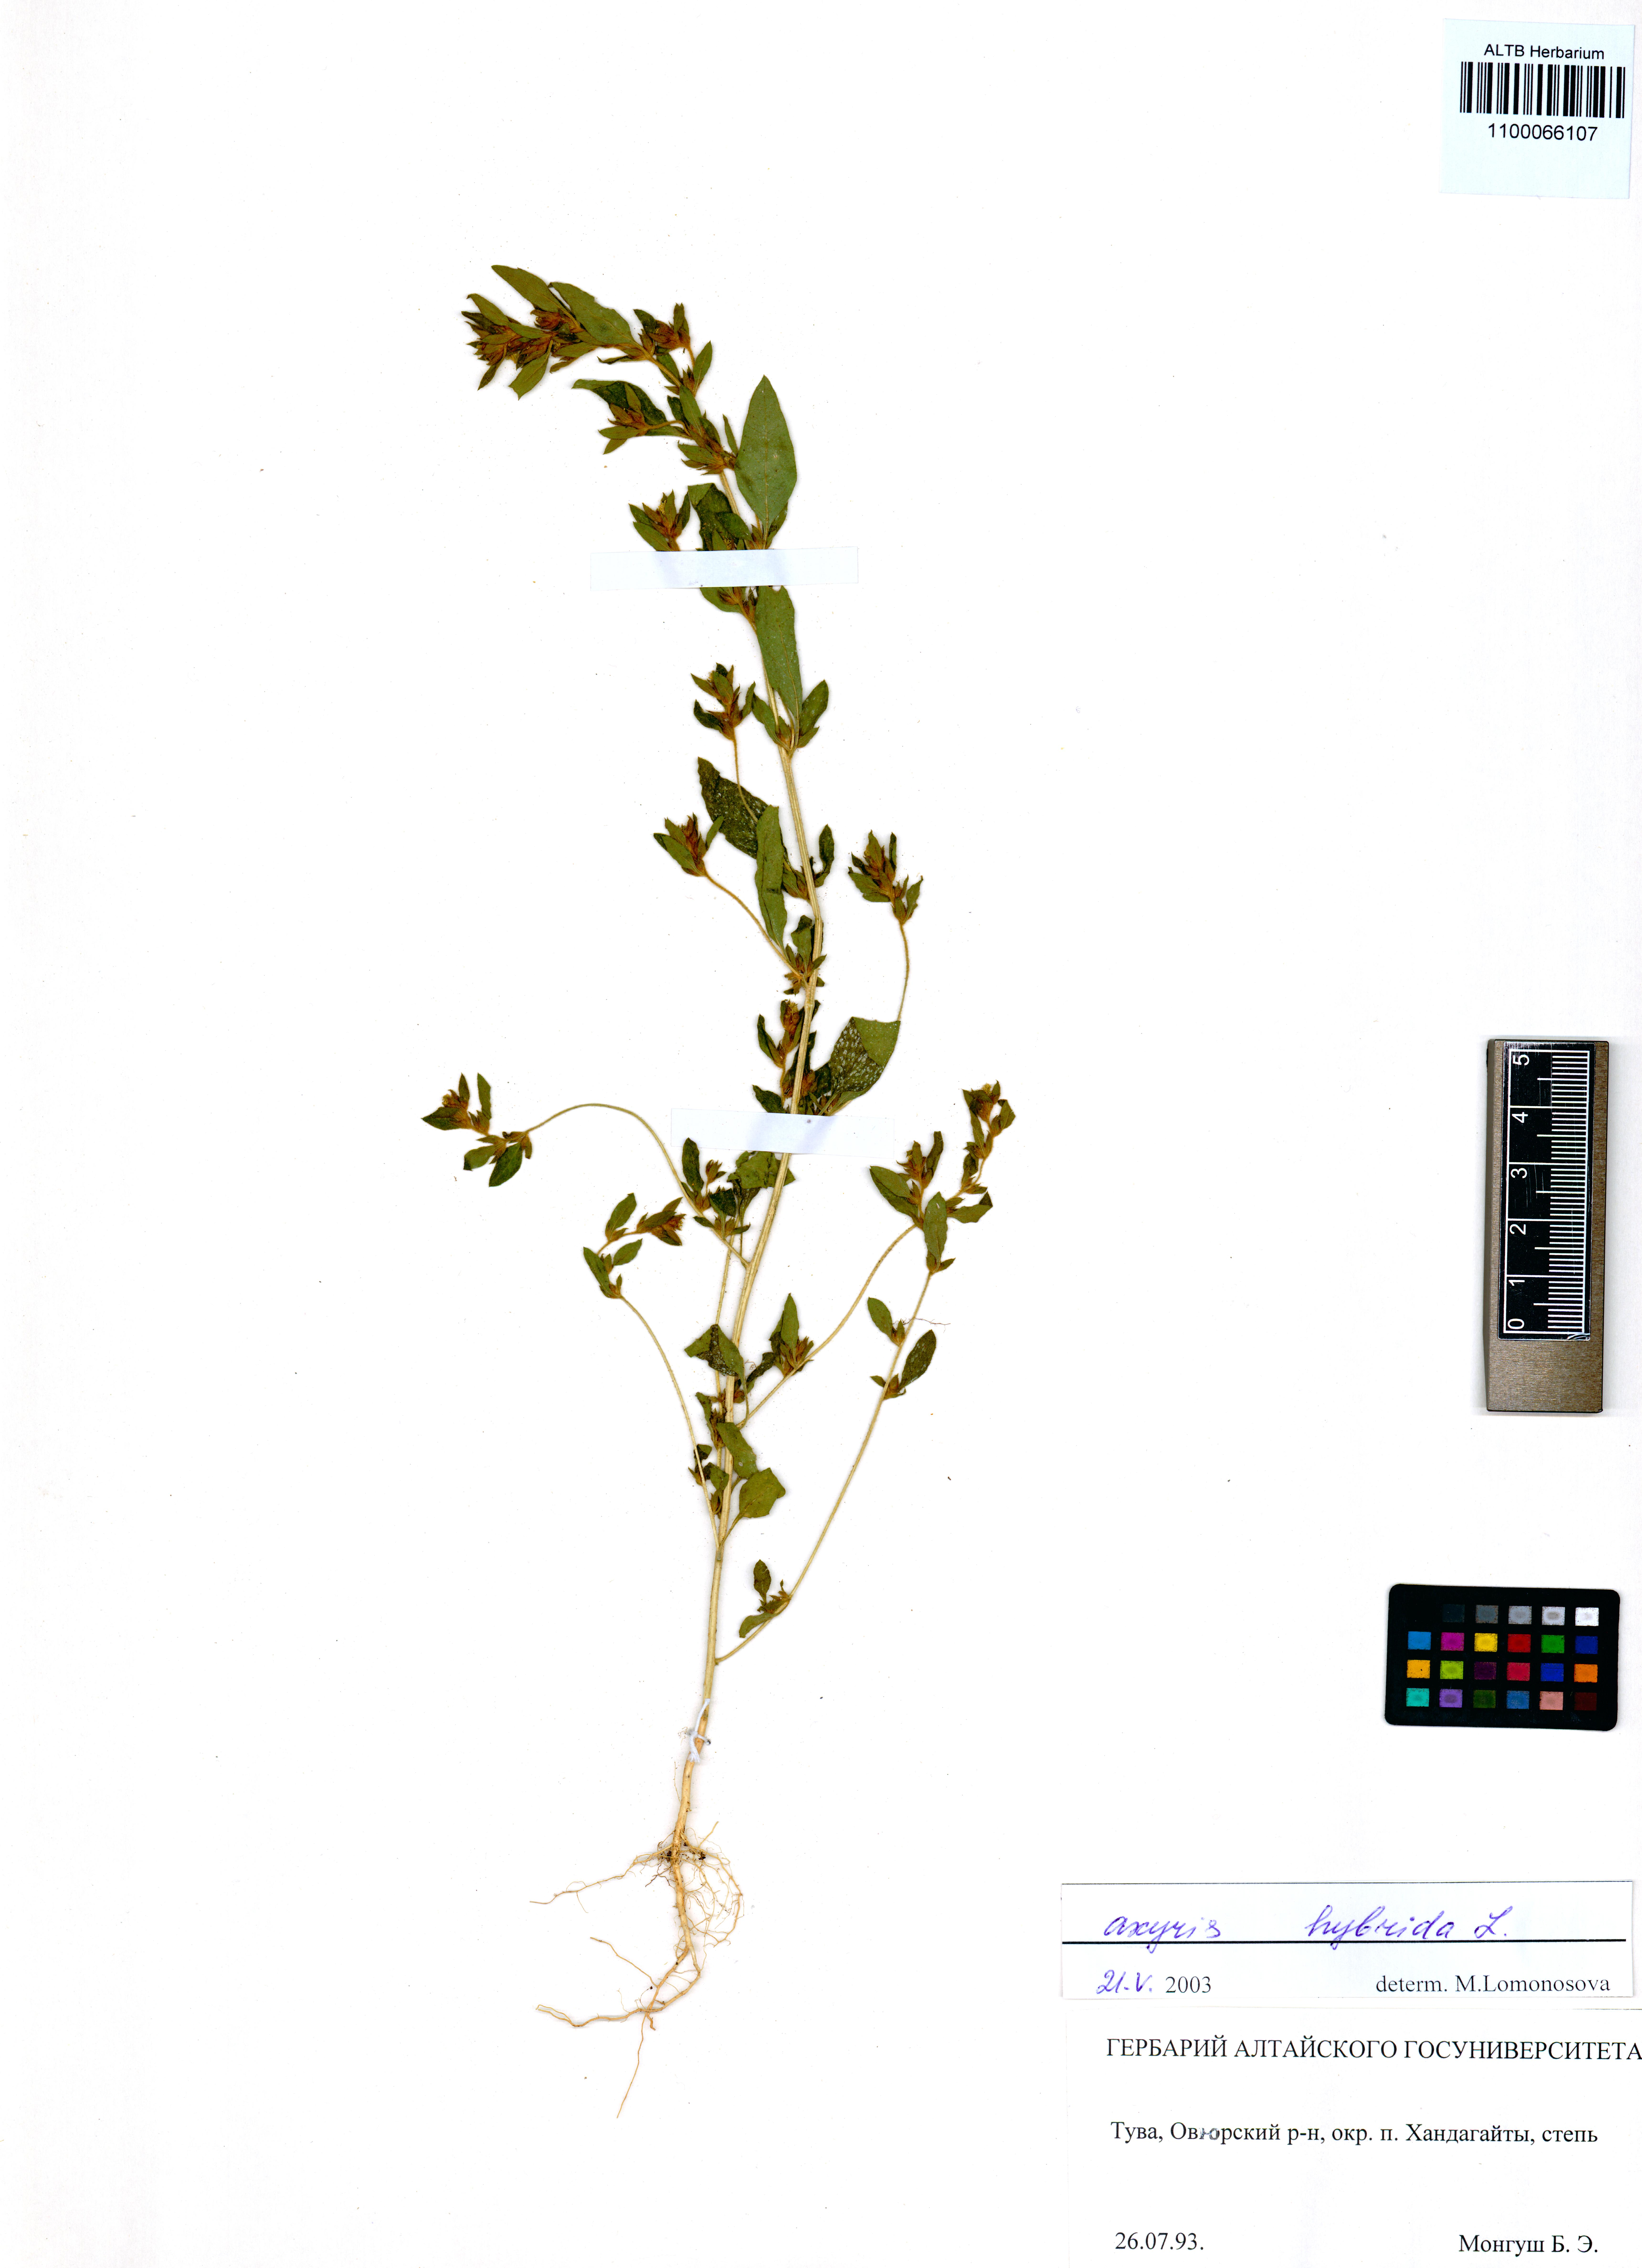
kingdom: Plantae
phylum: Tracheophyta
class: Magnoliopsida
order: Caryophyllales
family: Amaranthaceae
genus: Axyris
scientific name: Axyris hybrida
